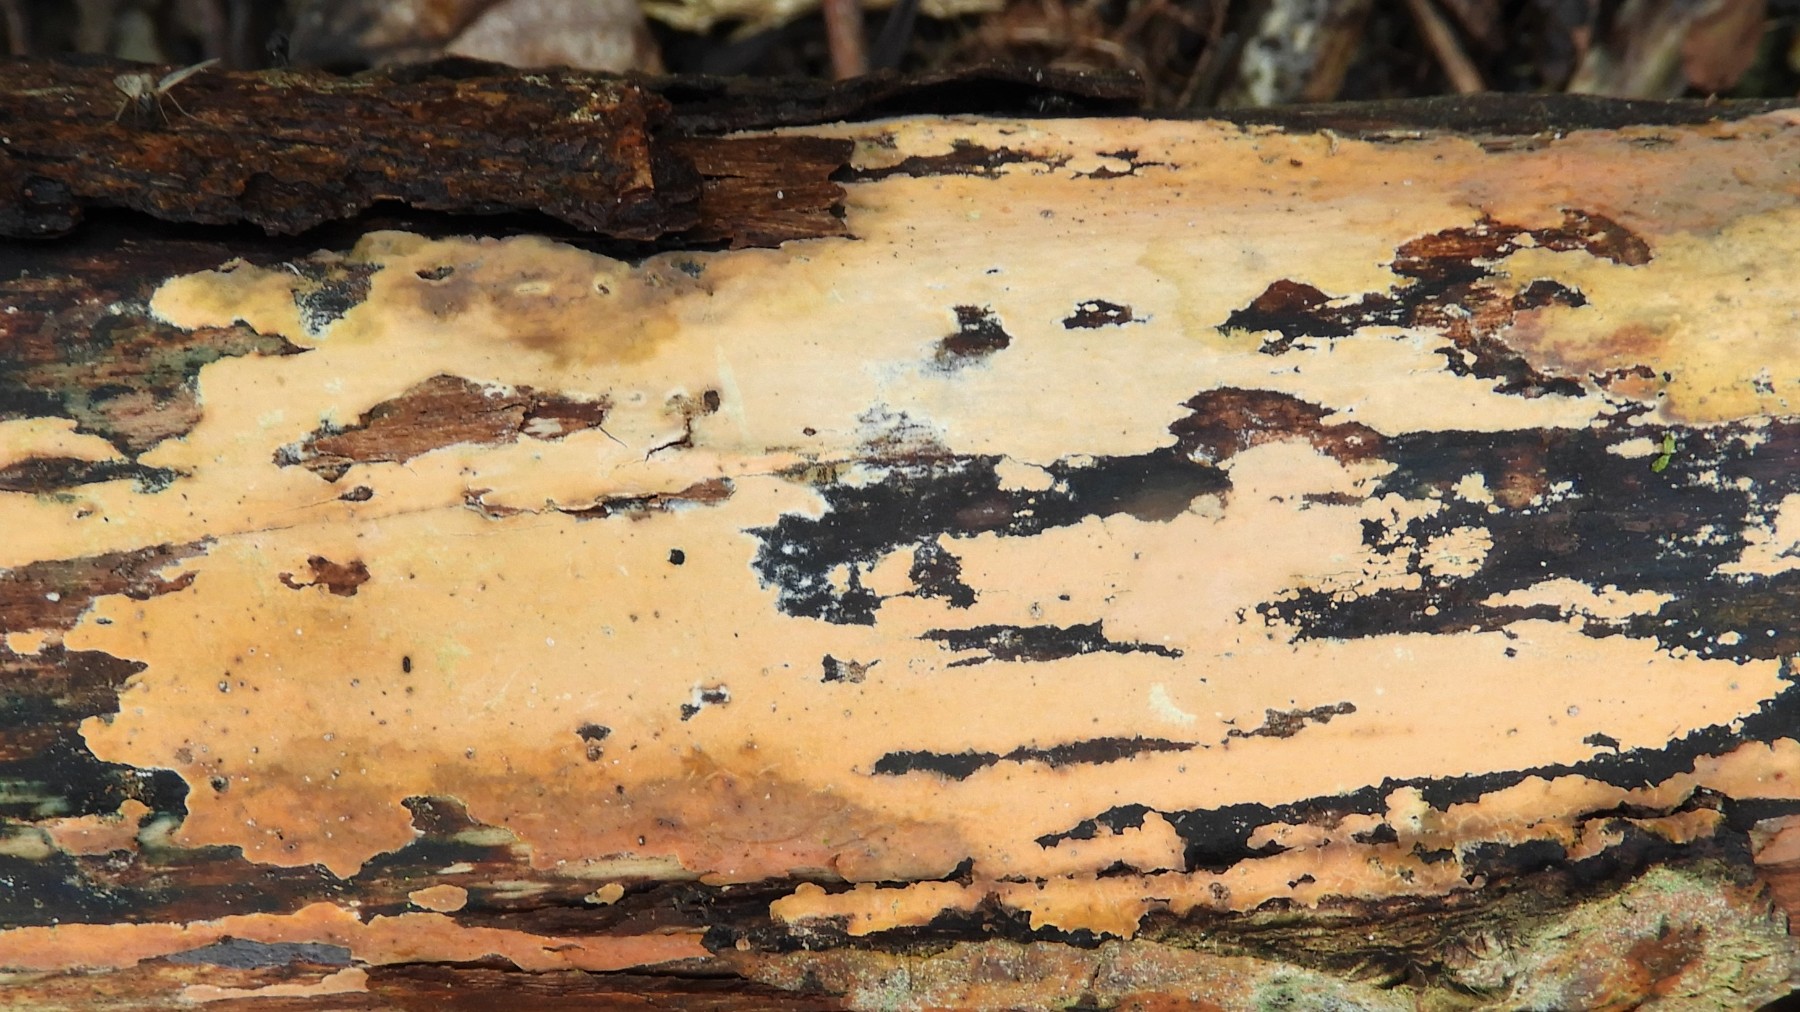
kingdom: Fungi
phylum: Basidiomycota
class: Agaricomycetes
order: Russulales
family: Peniophoraceae
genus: Peniophora
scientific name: Peniophora incarnata
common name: laksefarvet voksskind
